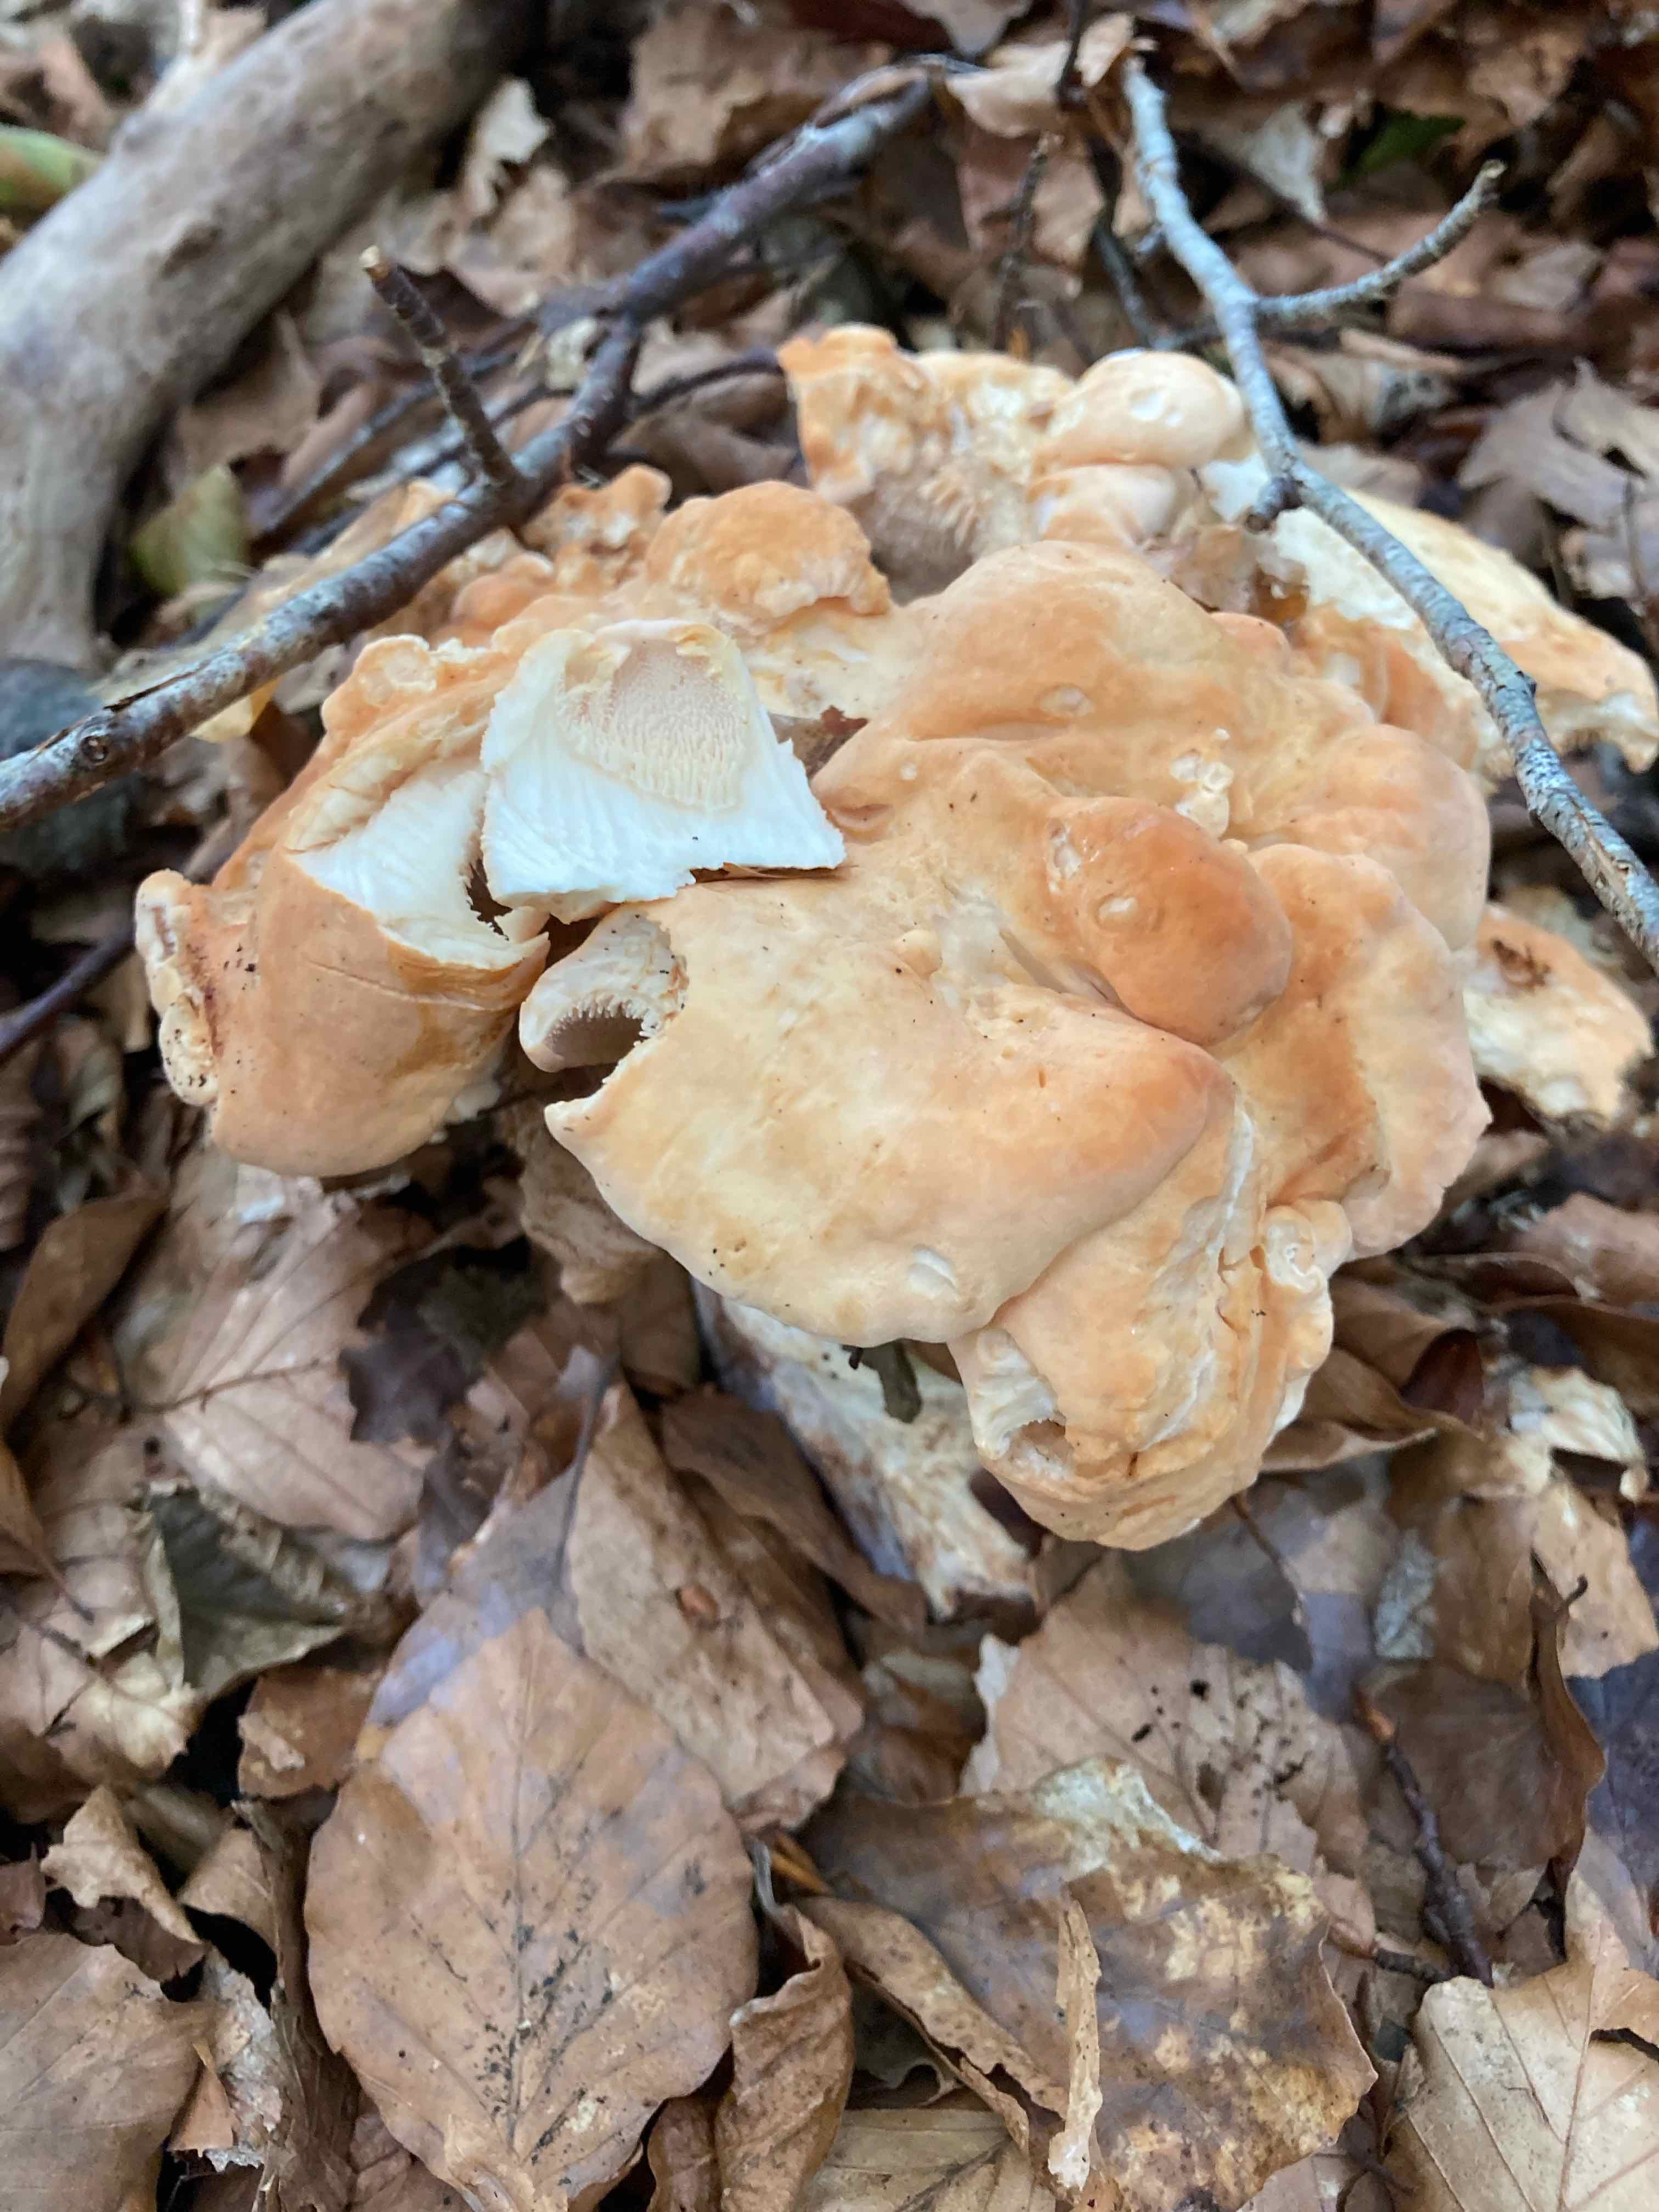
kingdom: Fungi
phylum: Basidiomycota
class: Agaricomycetes
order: Cantharellales
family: Hydnaceae
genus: Hydnum
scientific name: Hydnum
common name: pigsvamp
